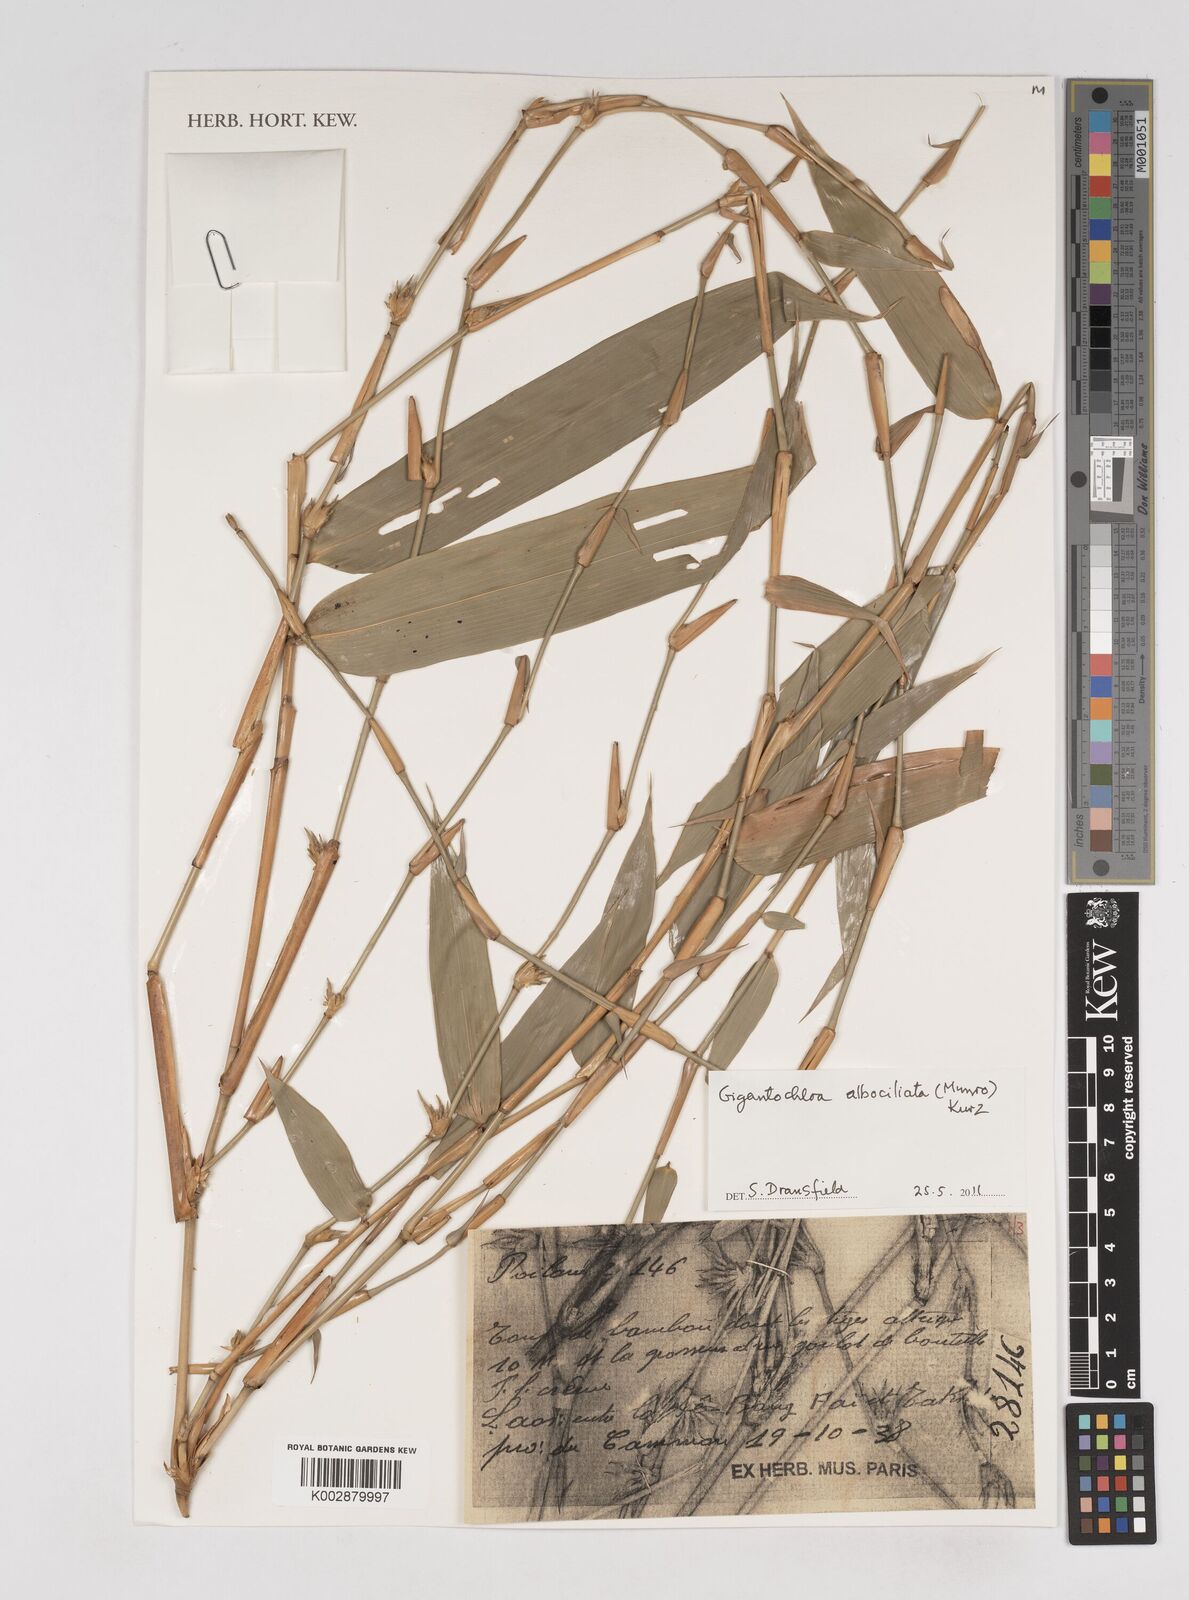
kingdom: Plantae
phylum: Tracheophyta
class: Liliopsida
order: Poales
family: Poaceae
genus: Gigantochloa
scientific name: Gigantochloa albociliata
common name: White-fringe gigantochloa
